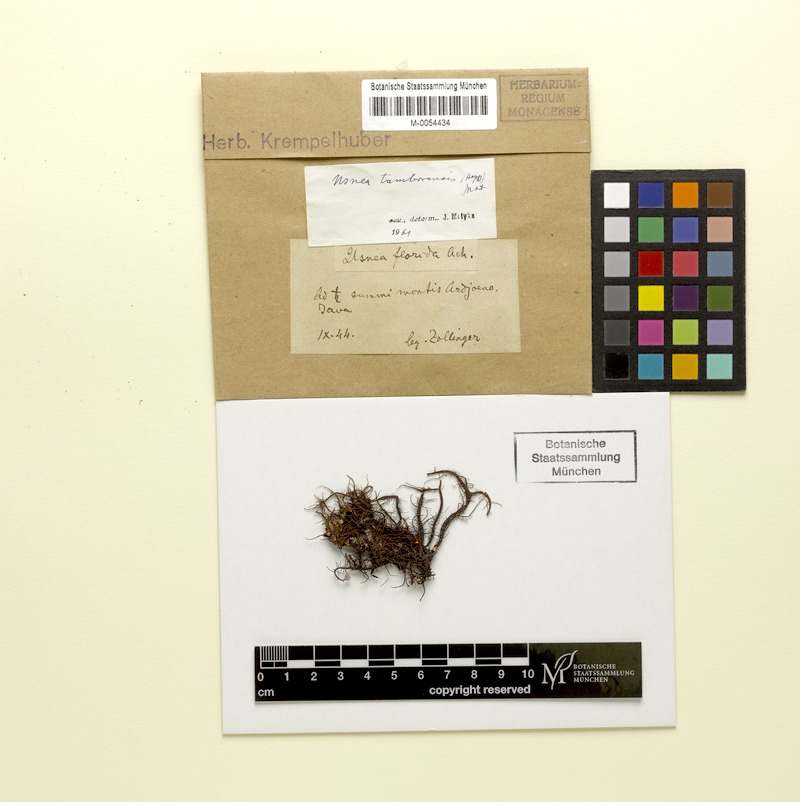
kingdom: Fungi
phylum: Ascomycota
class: Lecanoromycetes
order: Lecanorales
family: Parmeliaceae
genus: Usnea
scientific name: Usnea tamborensis
